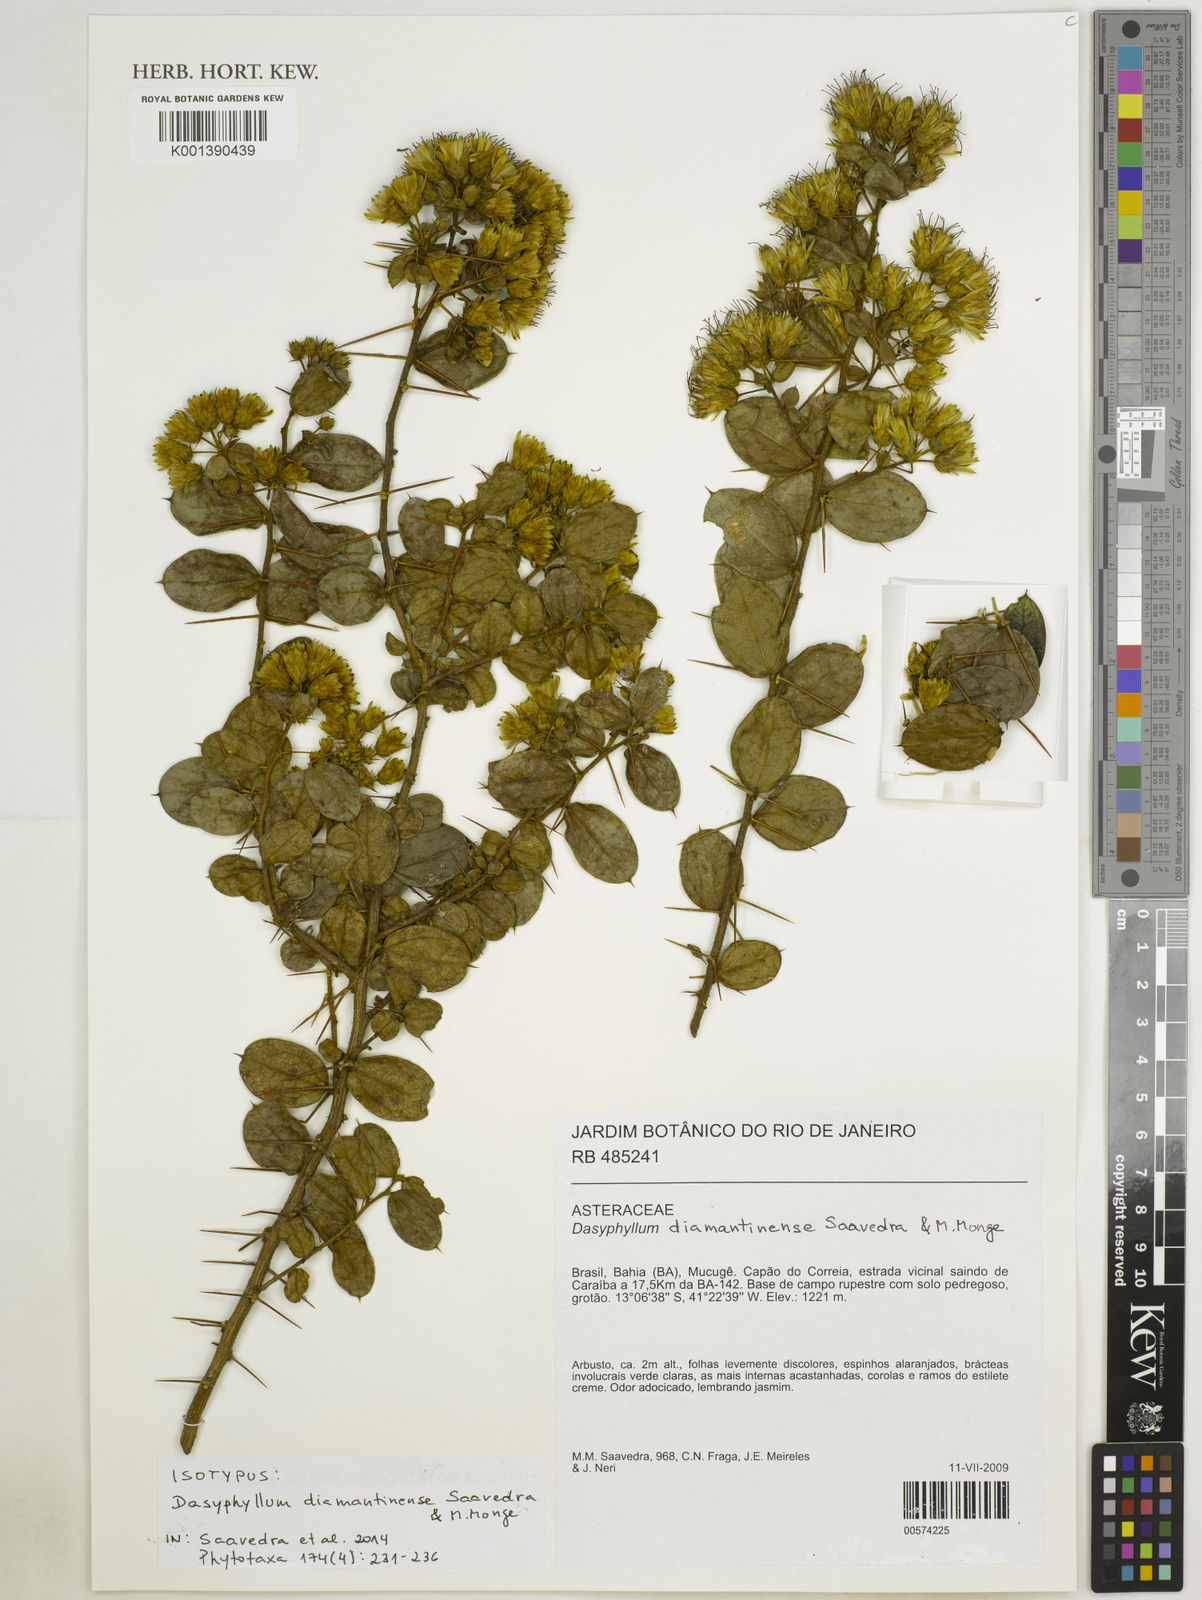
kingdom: Plantae
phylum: Tracheophyta
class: Magnoliopsida
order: Asterales
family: Asteraceae
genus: Dasyphyllum
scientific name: Dasyphyllum diamantinense
